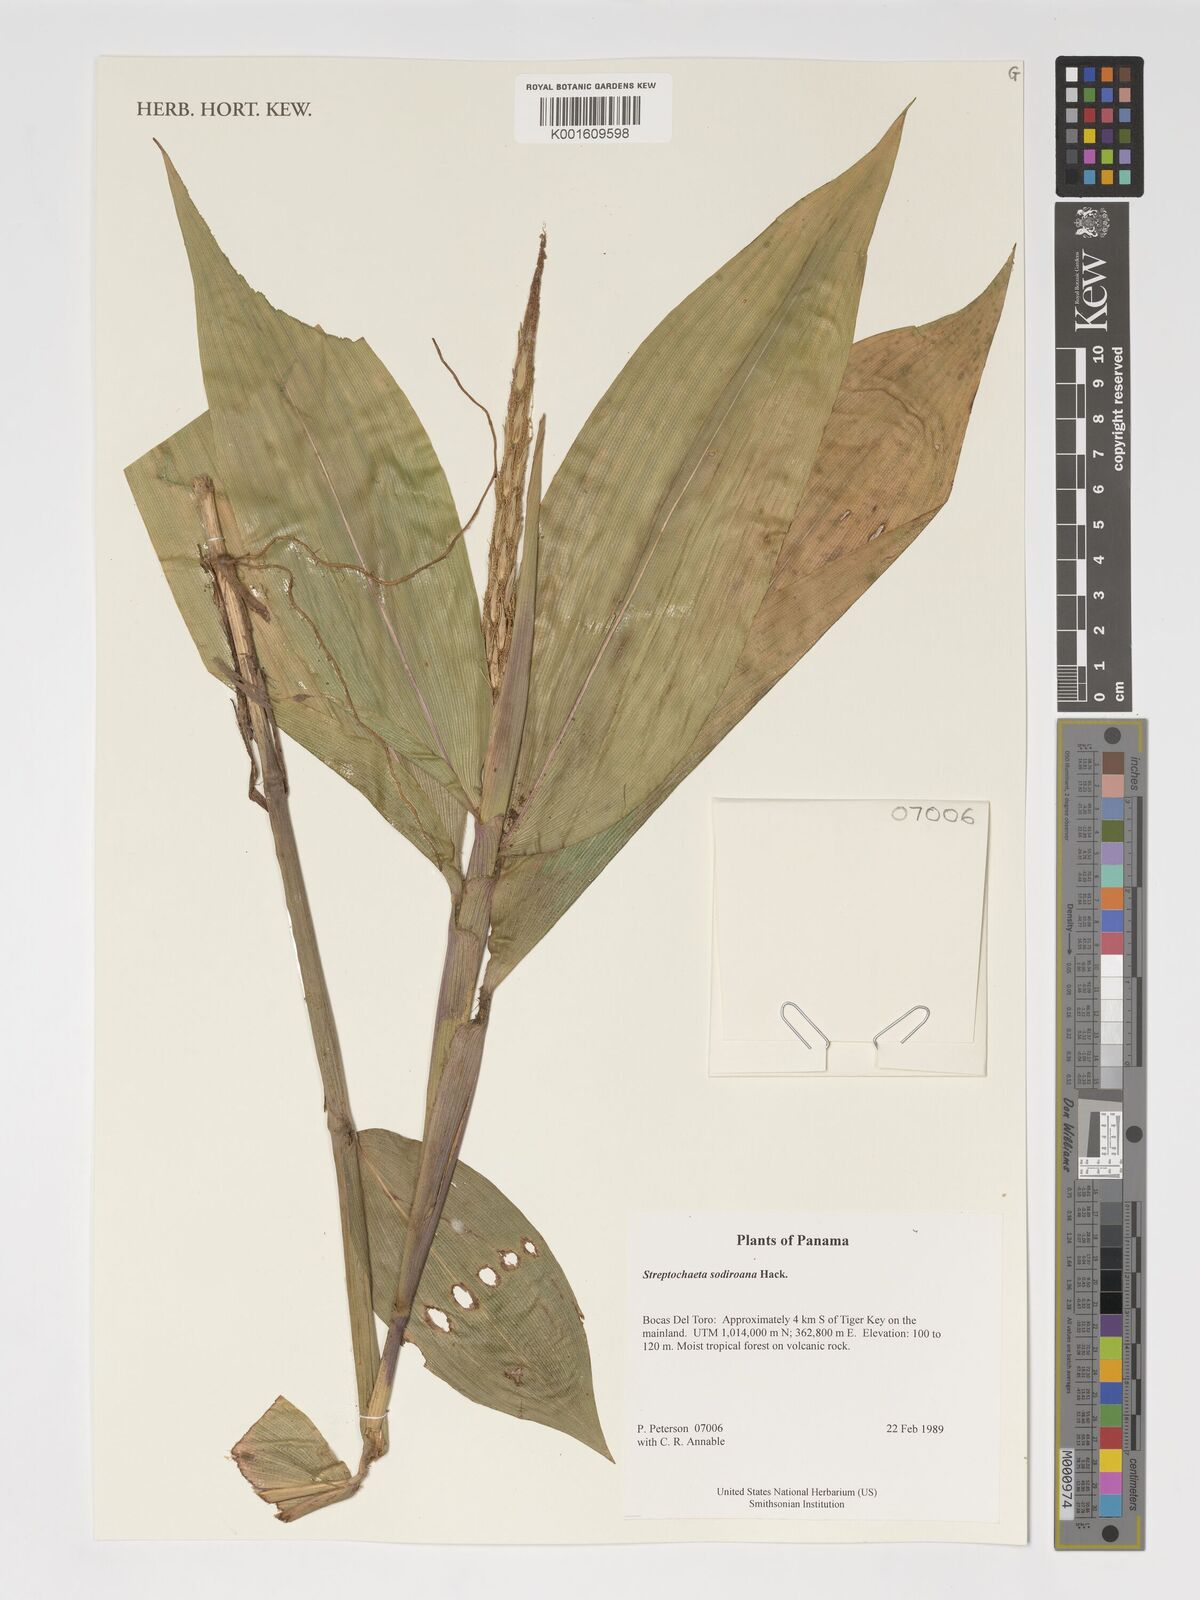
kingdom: Plantae
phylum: Tracheophyta
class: Liliopsida
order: Poales
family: Poaceae
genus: Streptochaeta
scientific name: Streptochaeta sodiroana
